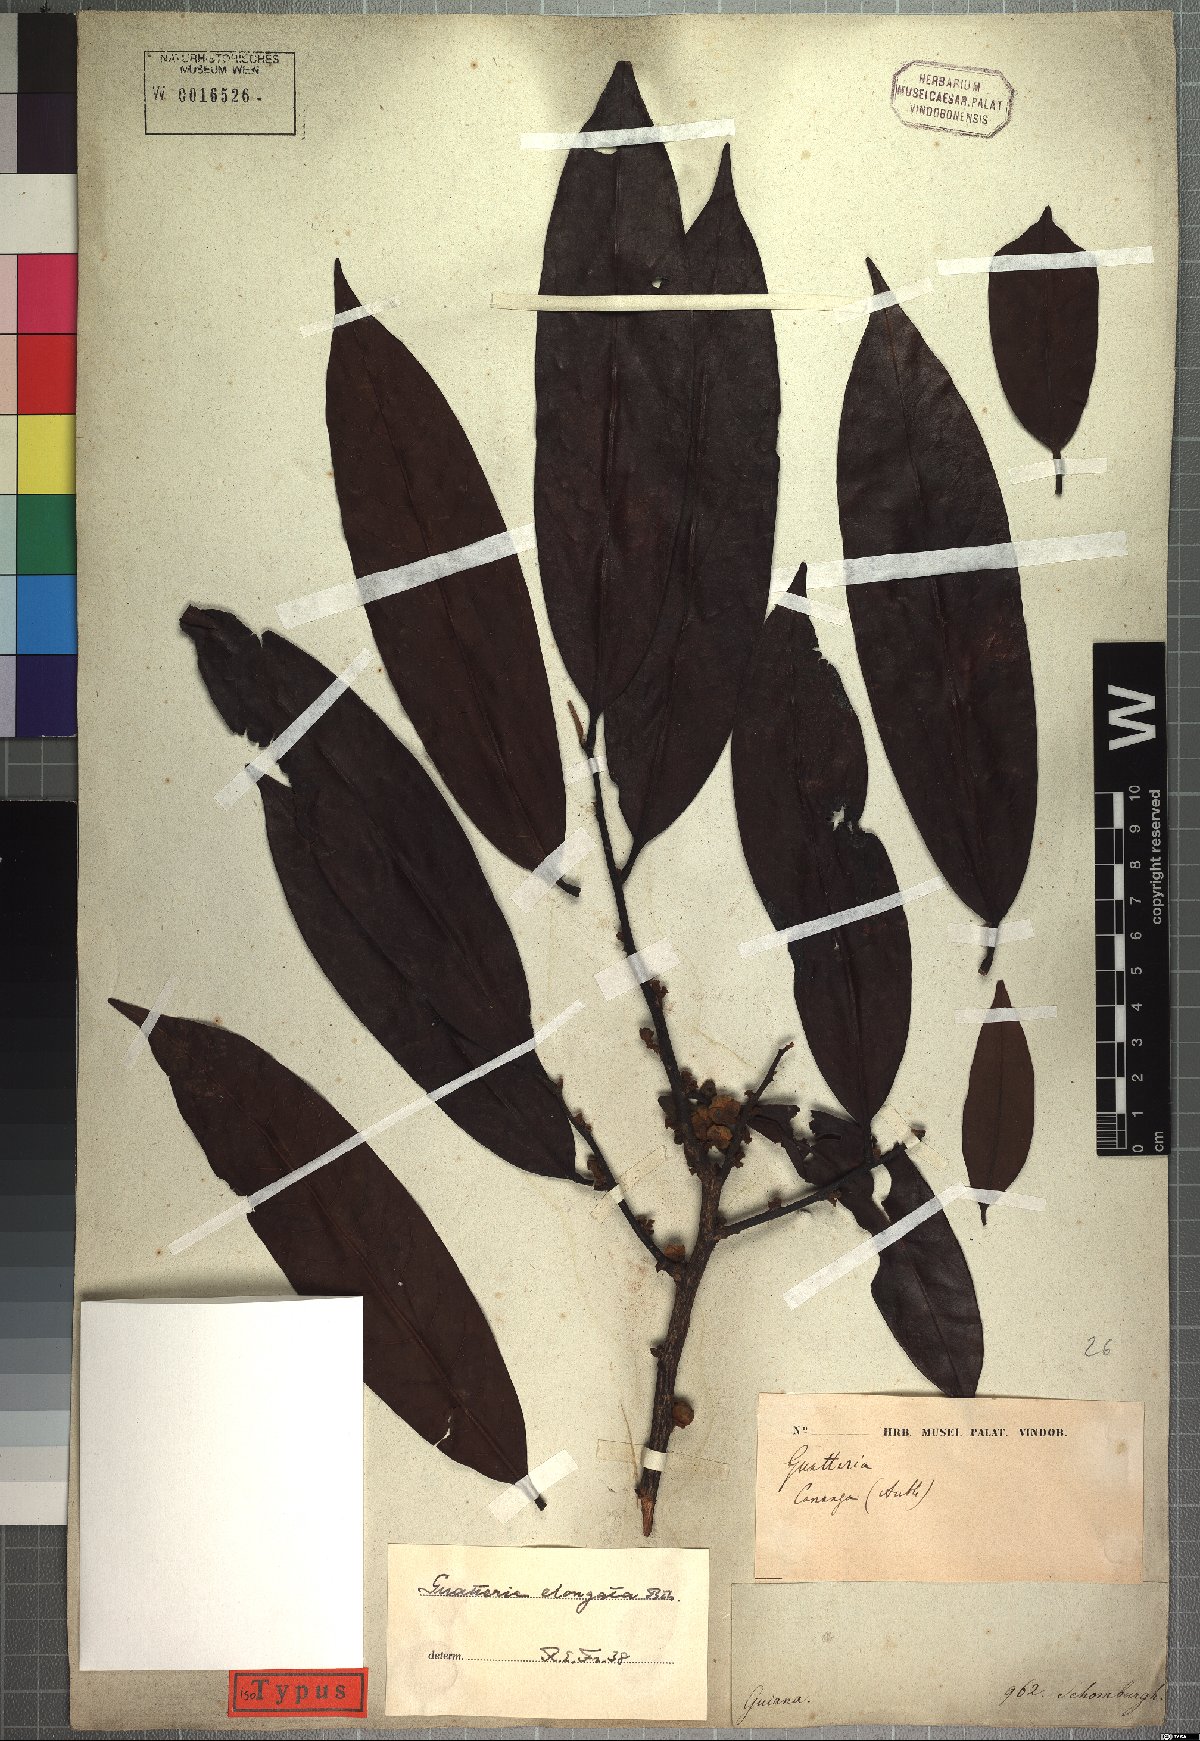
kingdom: Plantae
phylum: Tracheophyta
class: Magnoliopsida
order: Magnoliales
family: Annonaceae
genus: Guatteria
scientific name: Guatteria elongata
